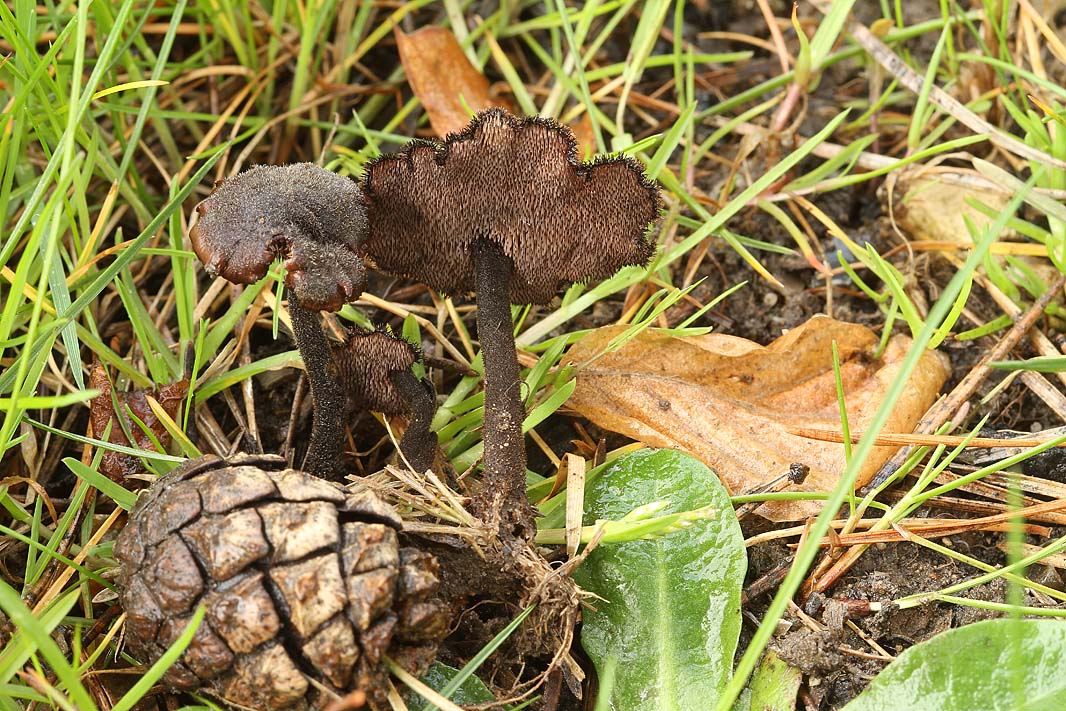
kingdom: Fungi
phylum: Basidiomycota
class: Agaricomycetes
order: Russulales
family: Auriscalpiaceae
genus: Auriscalpium
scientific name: Auriscalpium vulgare
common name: koglepigsvamp
